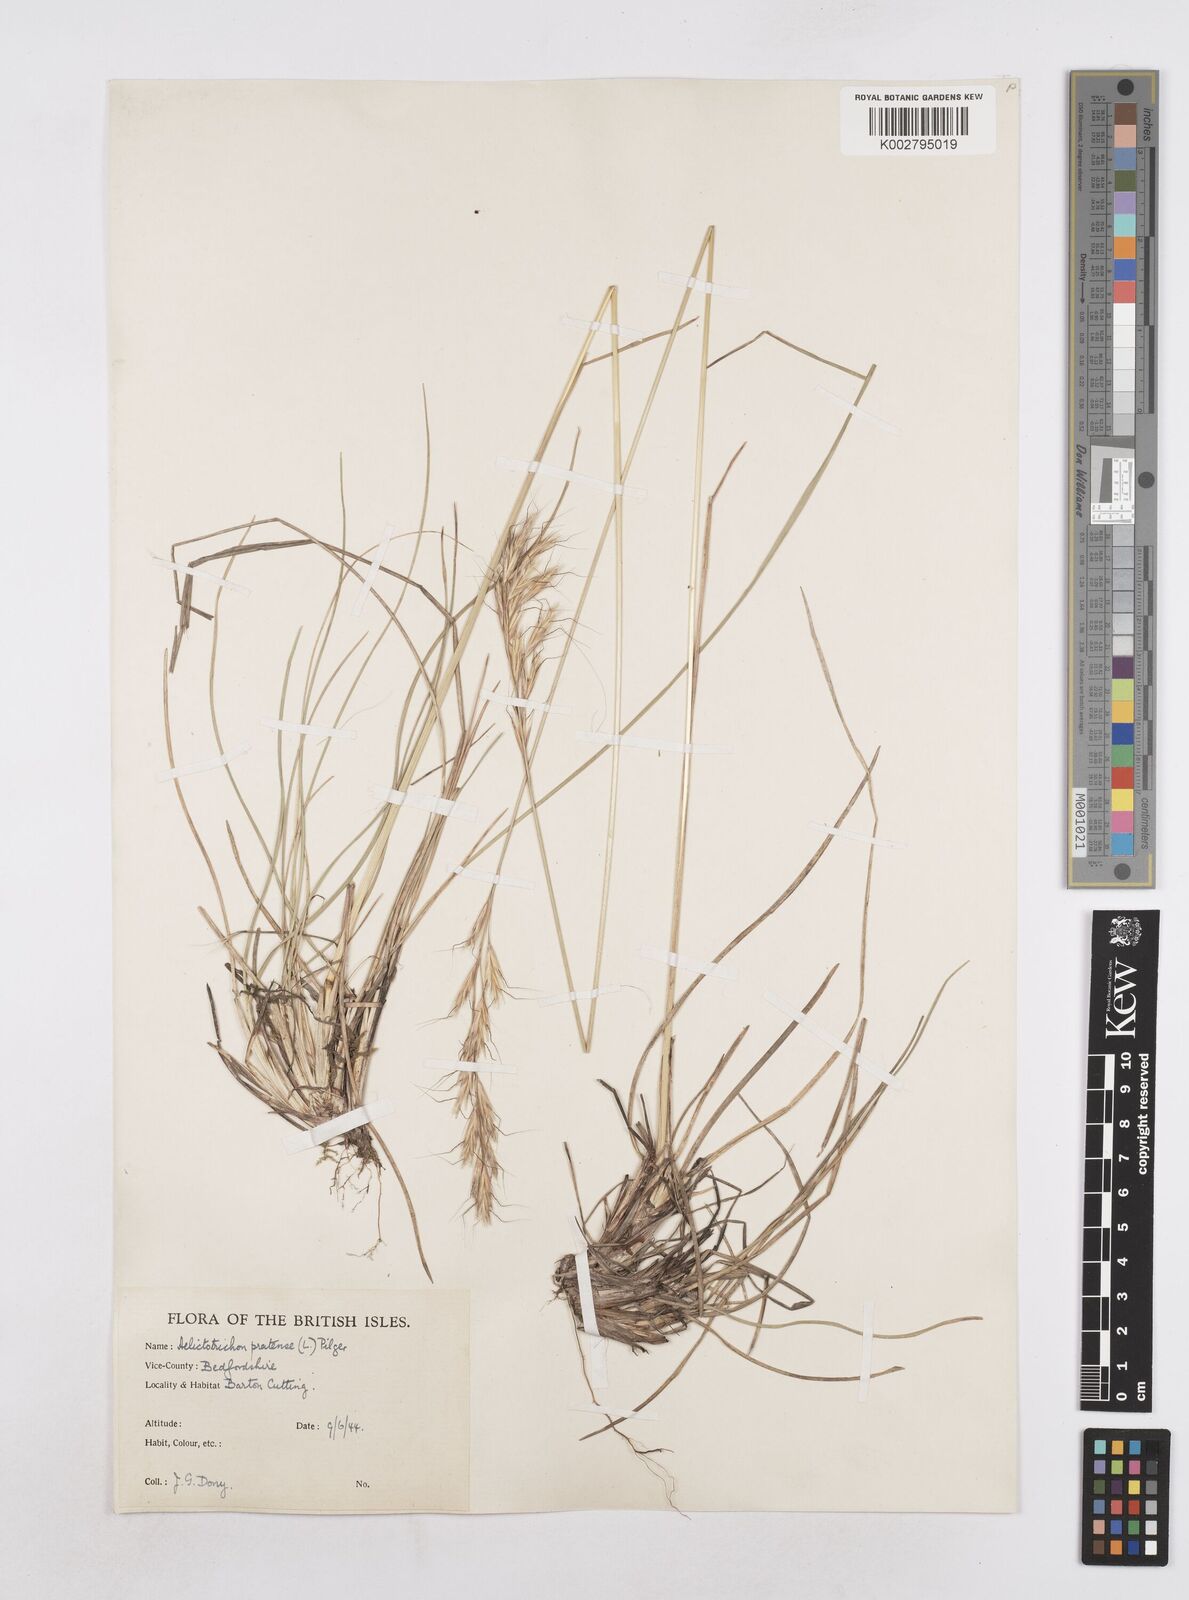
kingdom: Plantae
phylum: Tracheophyta
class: Liliopsida
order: Poales
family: Poaceae
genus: Helictochloa
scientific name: Helictochloa pratensis
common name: Meadow oat grass
